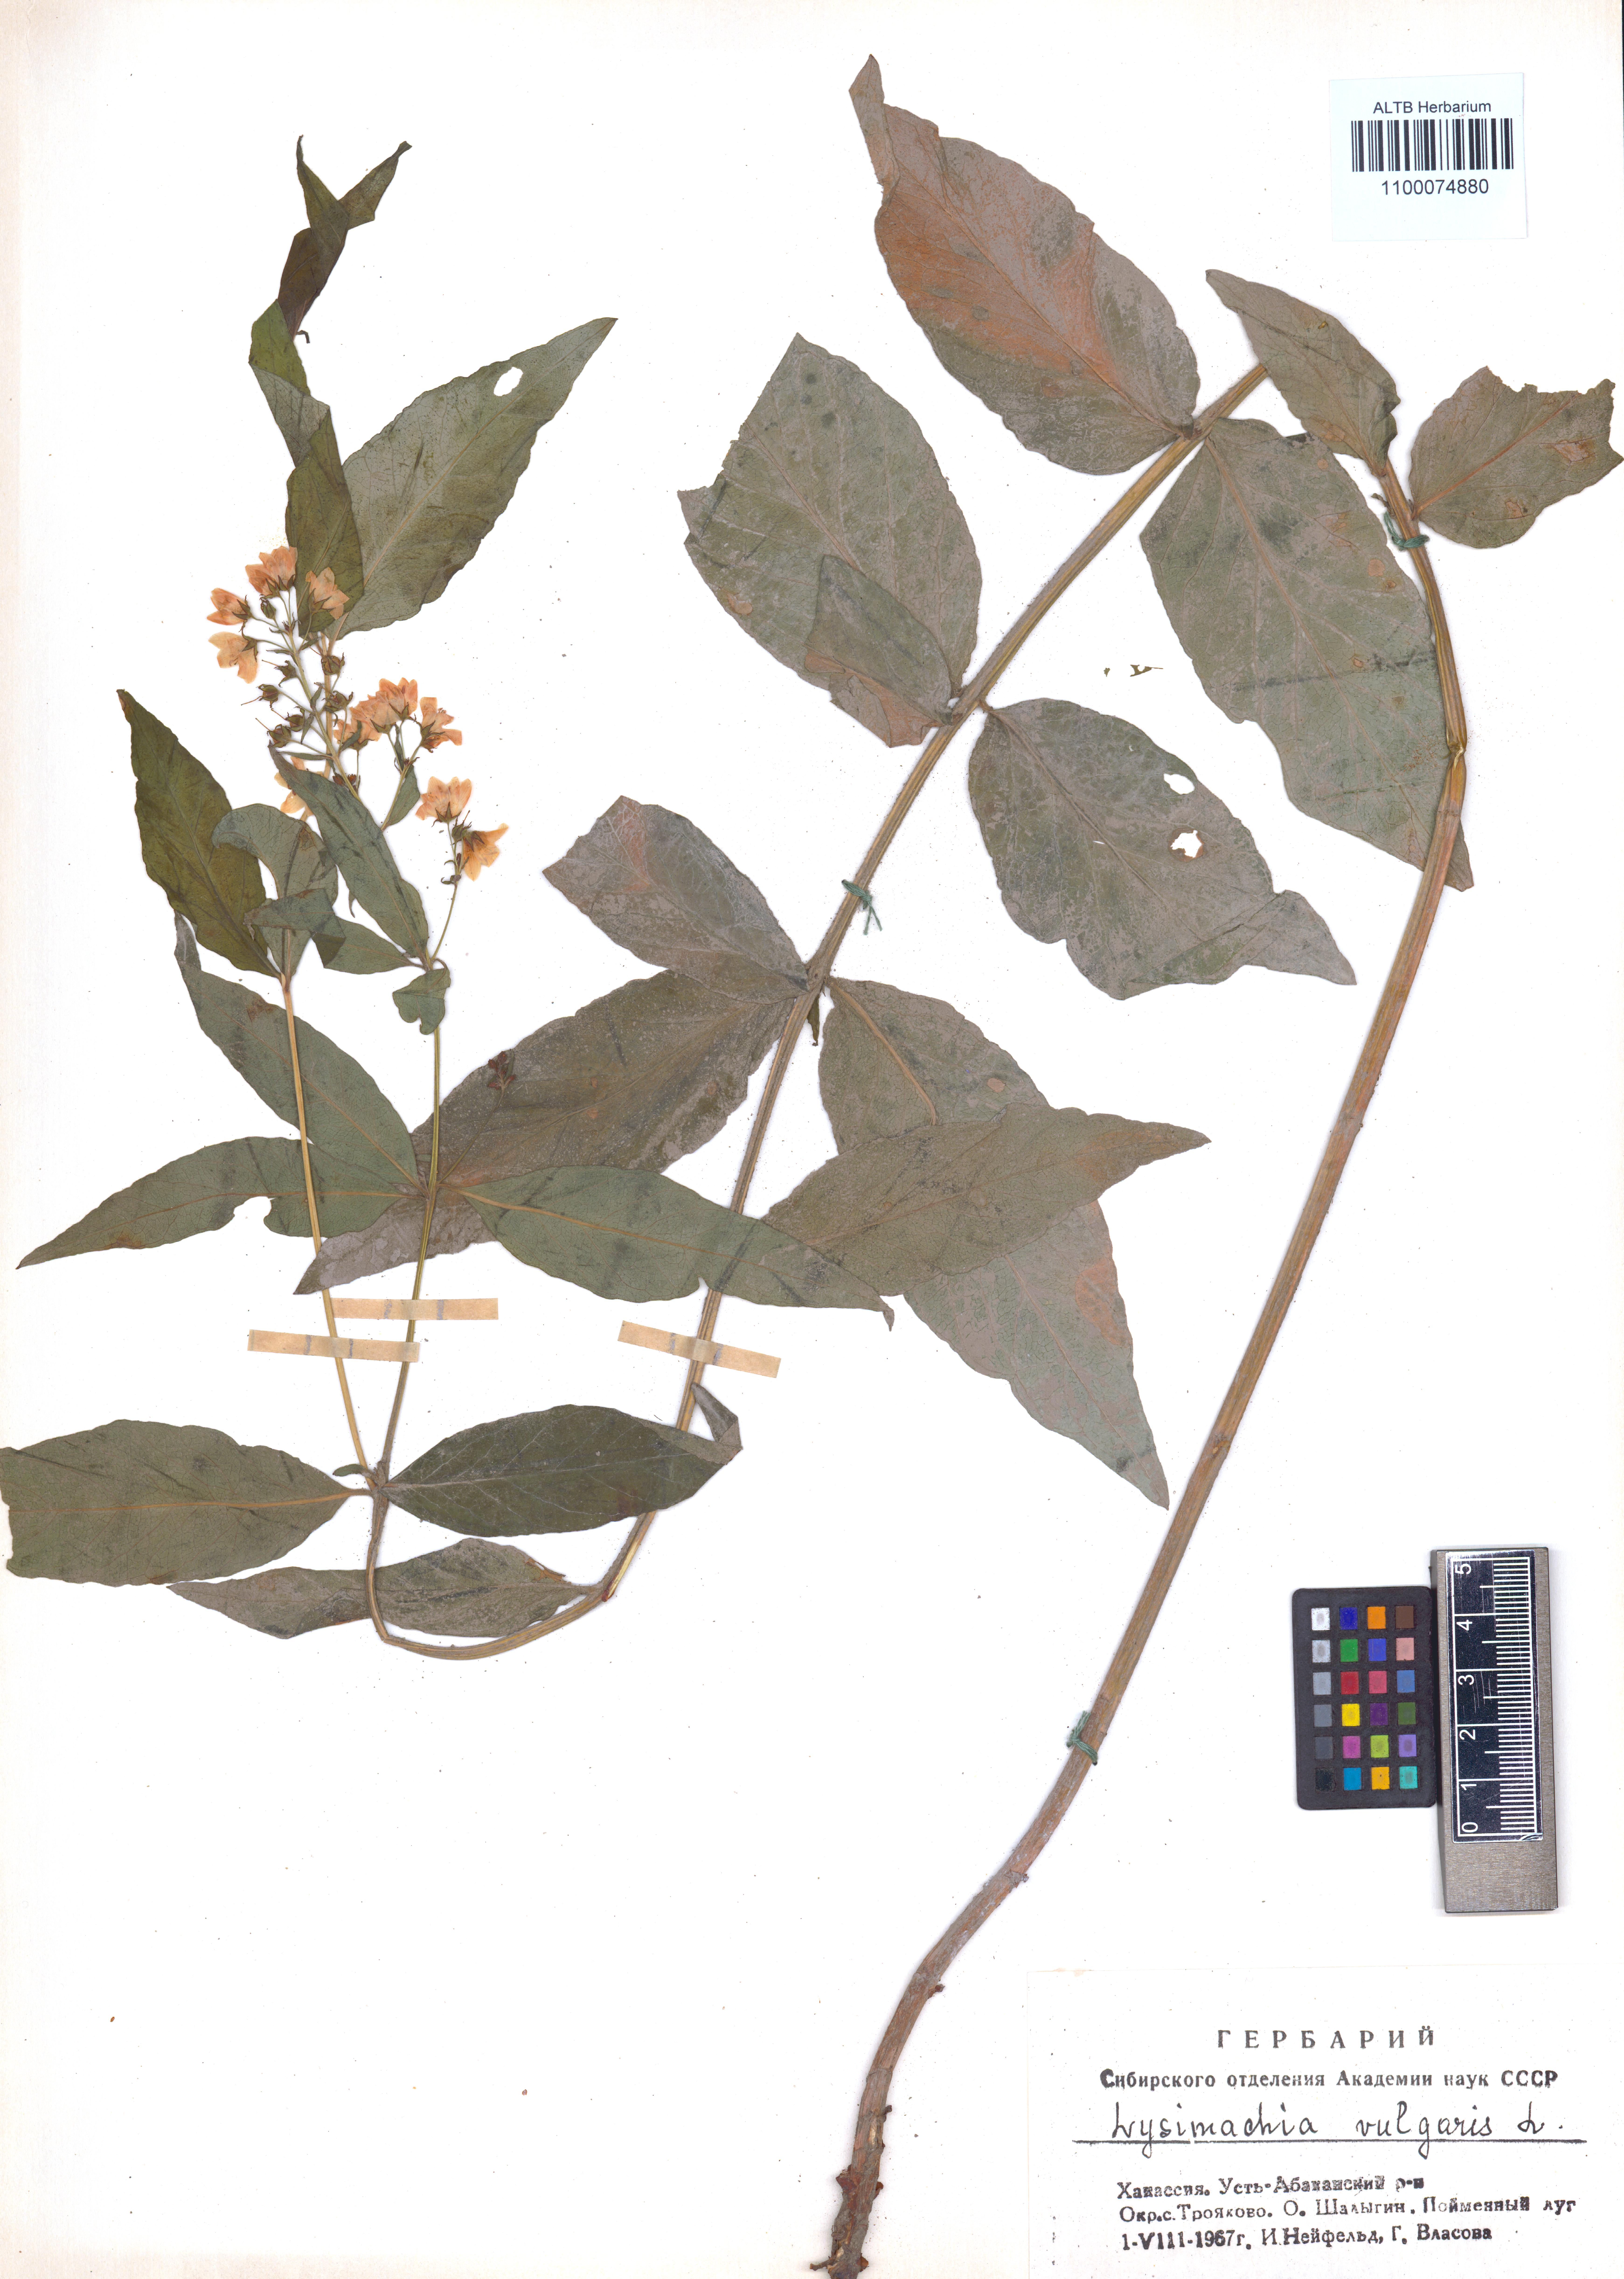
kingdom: Plantae
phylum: Tracheophyta
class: Magnoliopsida
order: Ericales
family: Primulaceae
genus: Lysimachia
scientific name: Lysimachia vulgaris
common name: Yellow loosestrife
